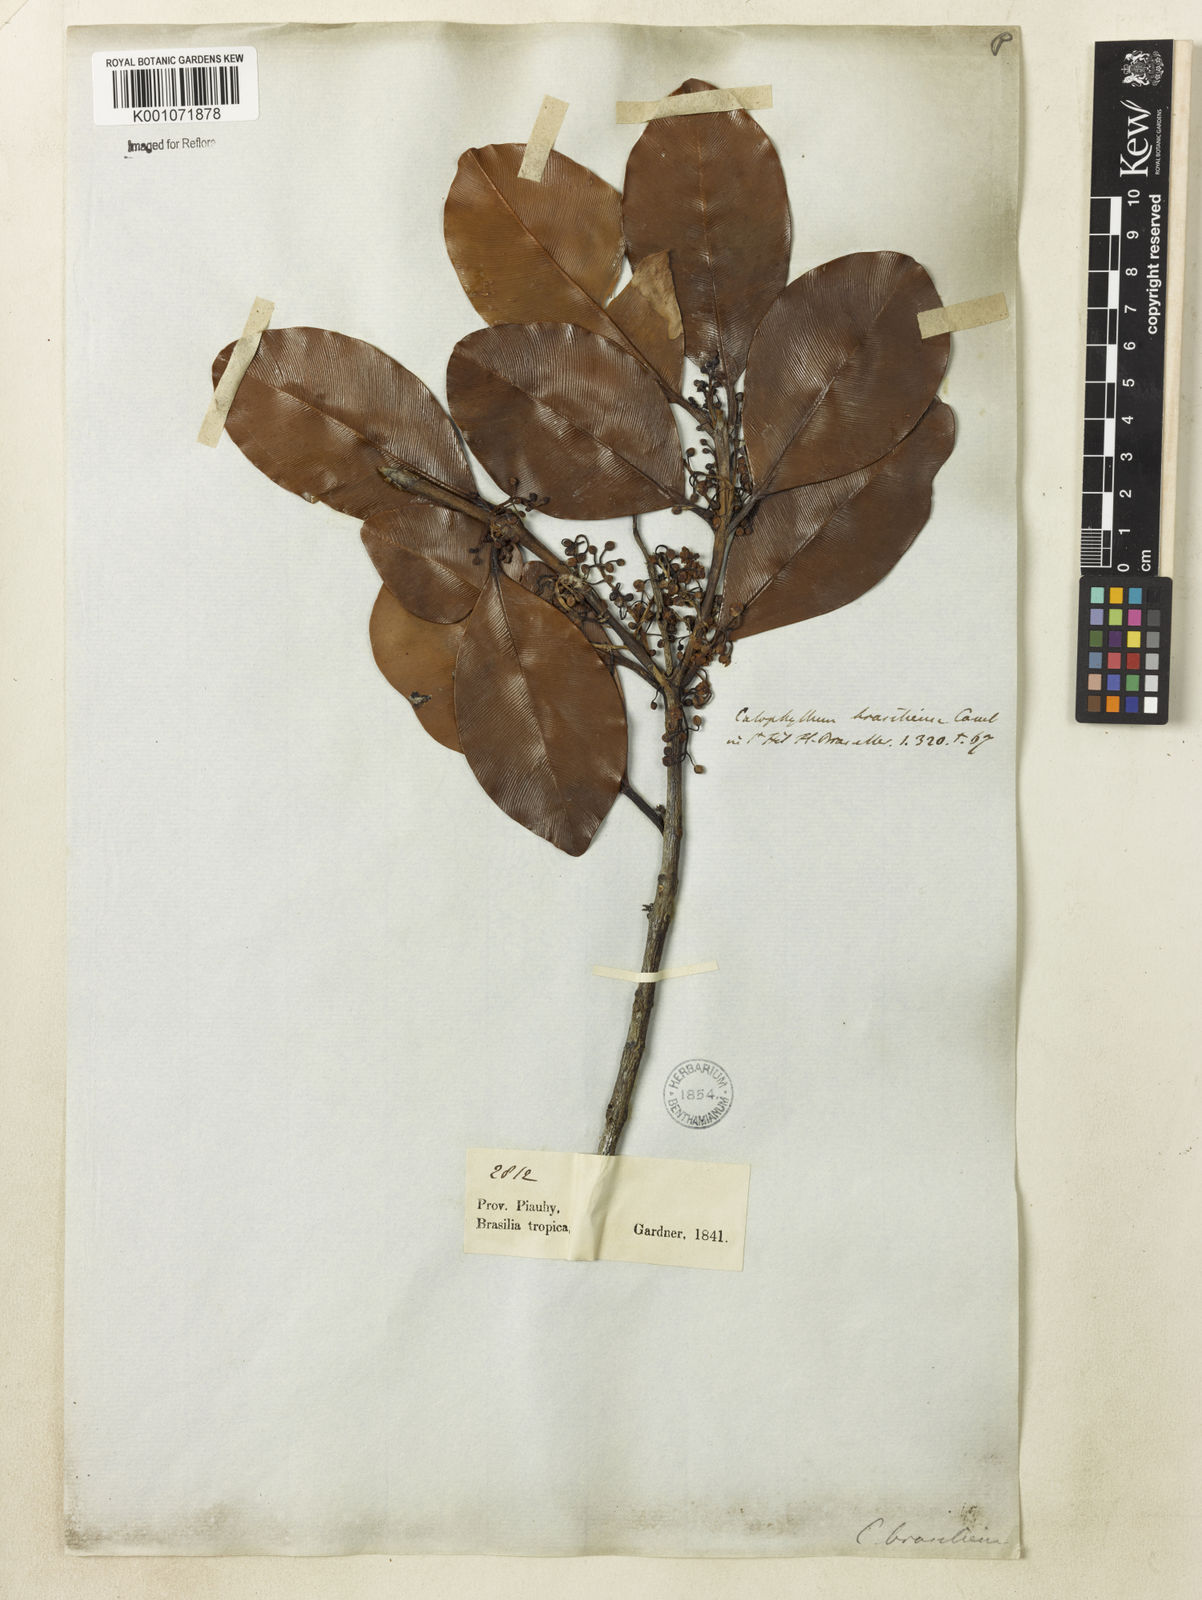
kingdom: Plantae
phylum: Tracheophyta
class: Magnoliopsida
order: Malpighiales
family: Calophyllaceae
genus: Calophyllum
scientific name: Calophyllum brasiliense
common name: Santa maria
